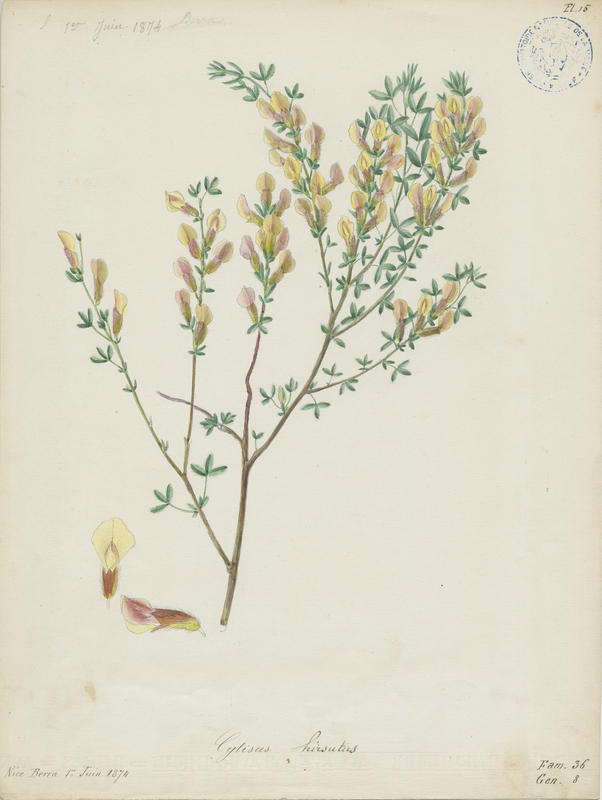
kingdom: Plantae
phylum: Tracheophyta
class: Magnoliopsida
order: Fabales
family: Fabaceae
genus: Chamaecytisus
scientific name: Chamaecytisus hirsutus
